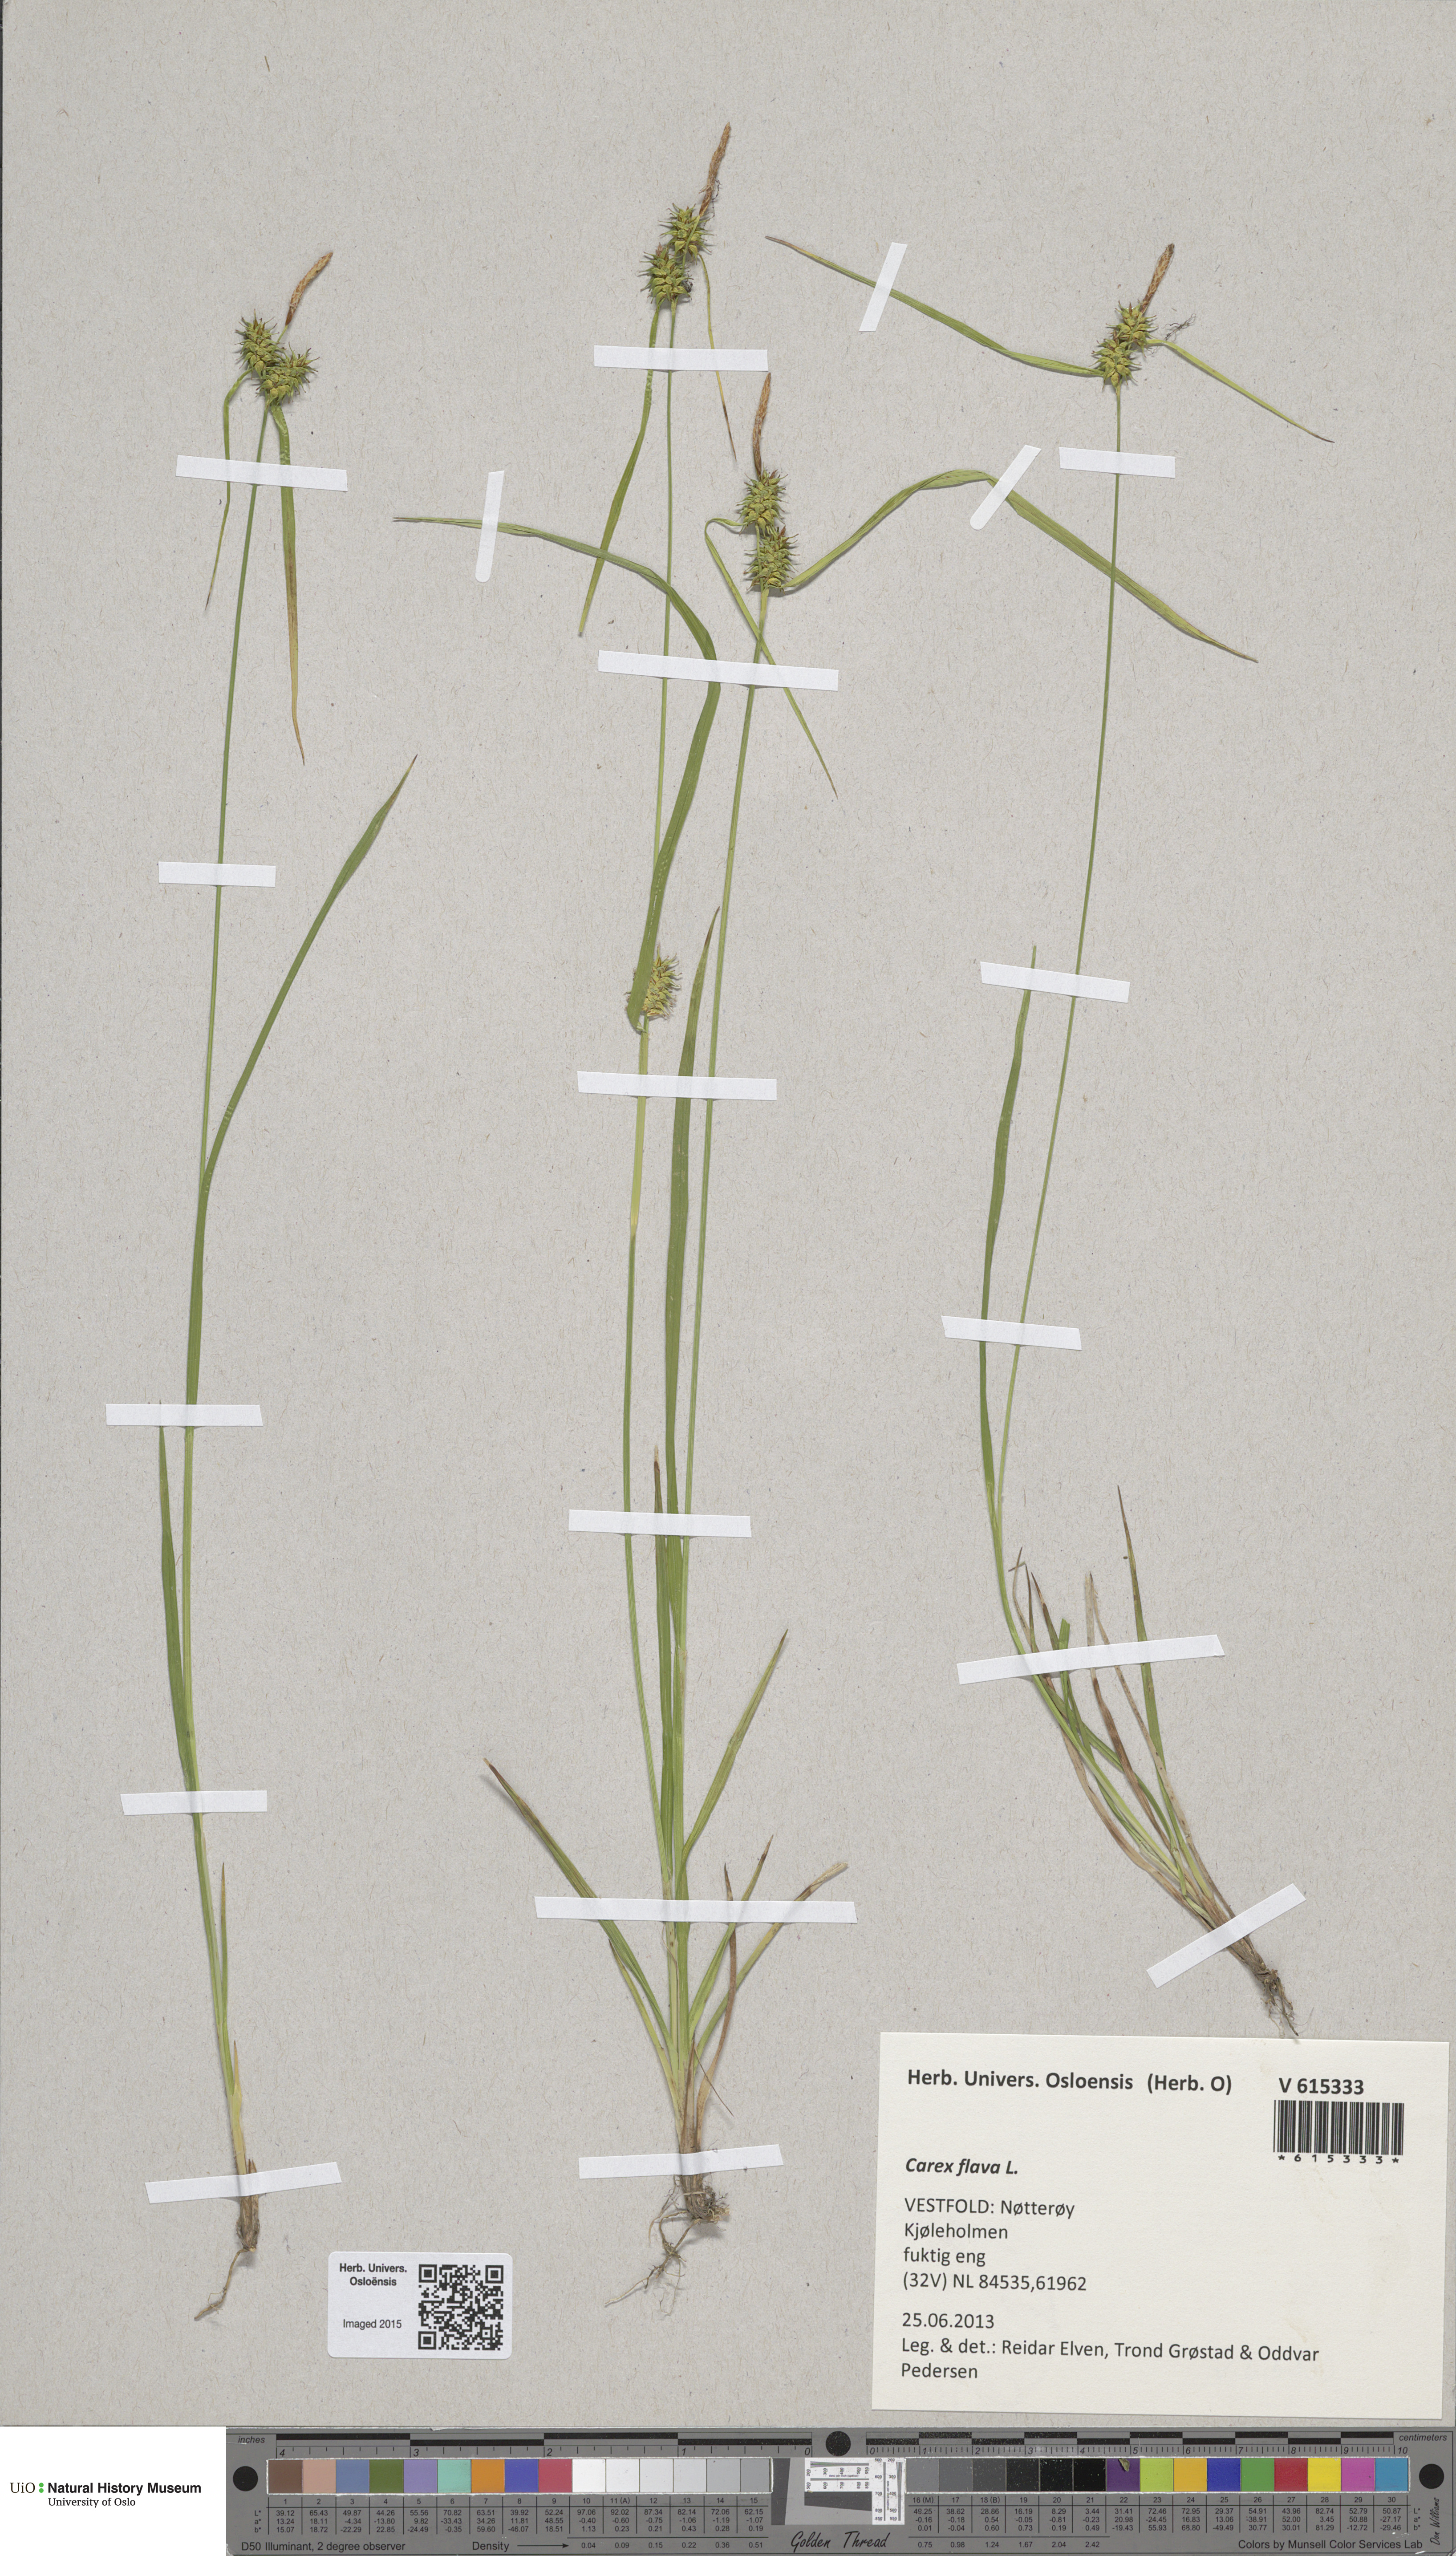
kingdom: Plantae
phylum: Tracheophyta
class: Liliopsida
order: Poales
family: Cyperaceae
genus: Carex
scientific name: Carex flava
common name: Large yellow-sedge
